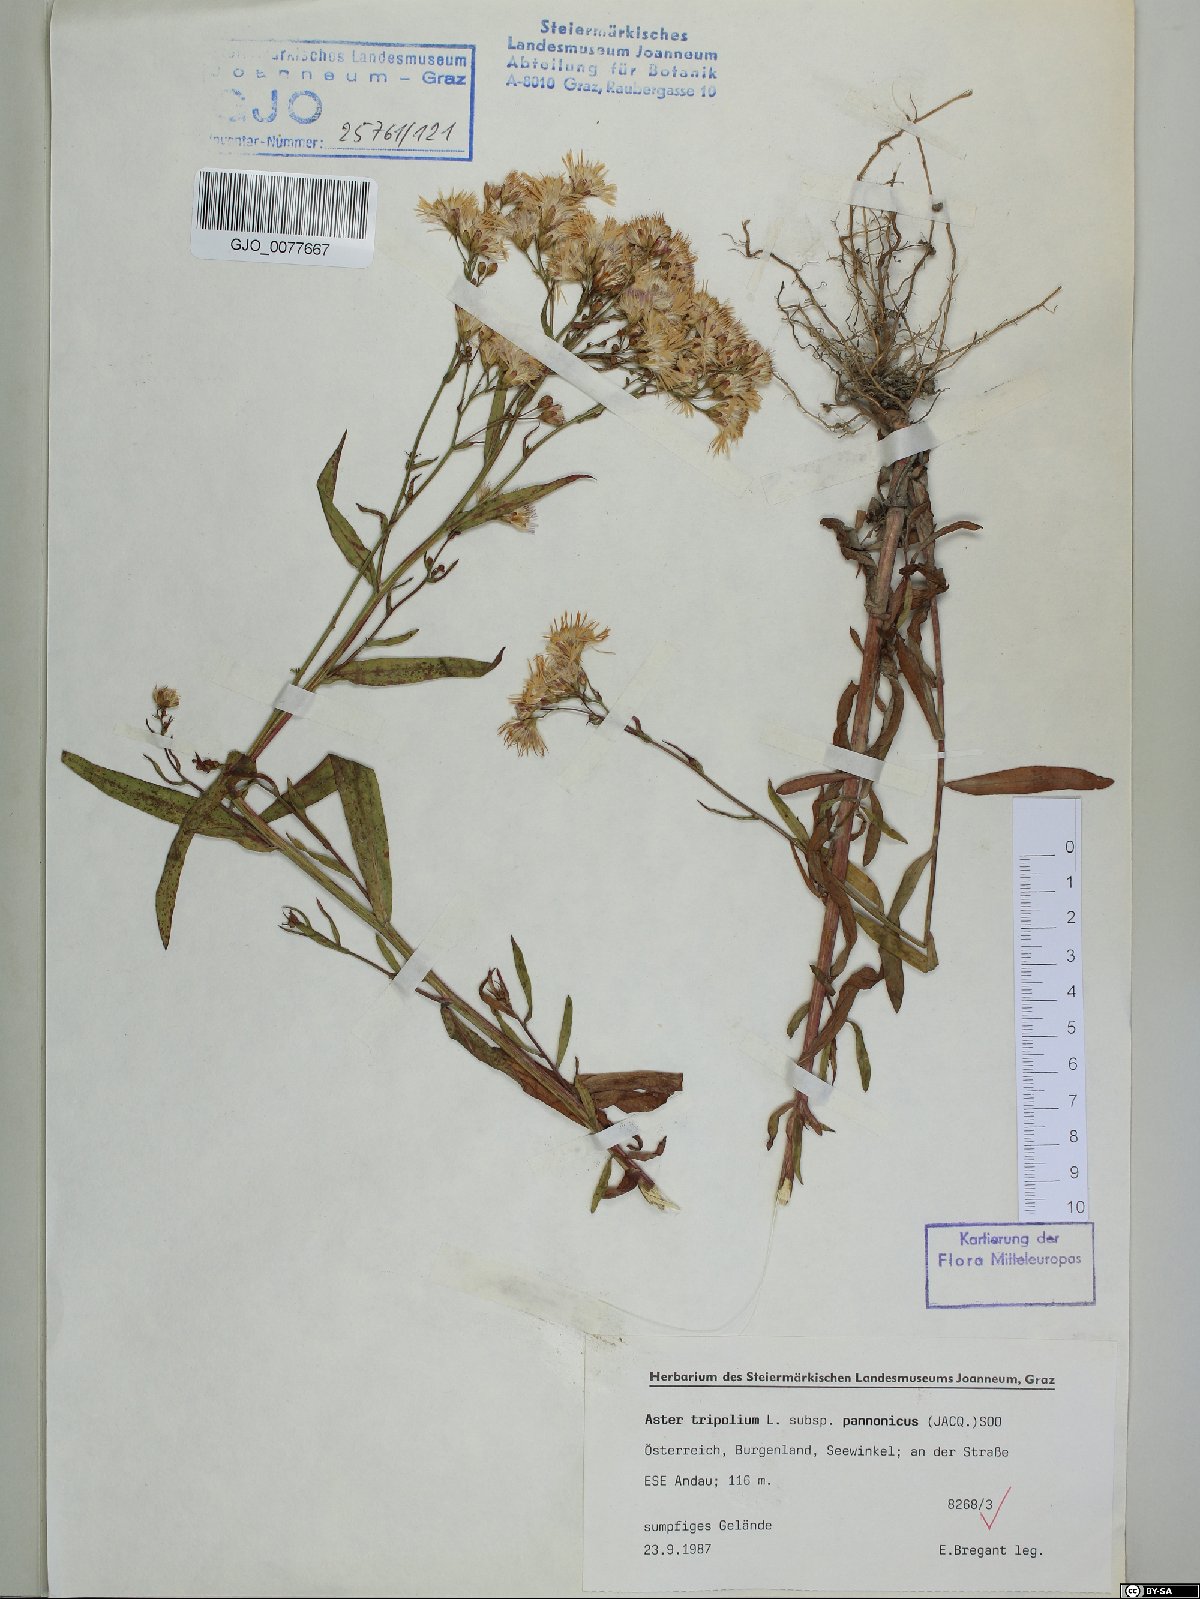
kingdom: Plantae
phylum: Tracheophyta
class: Magnoliopsida
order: Asterales
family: Asteraceae
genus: Tripolium
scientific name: Tripolium pannonicum
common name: Sea aster
